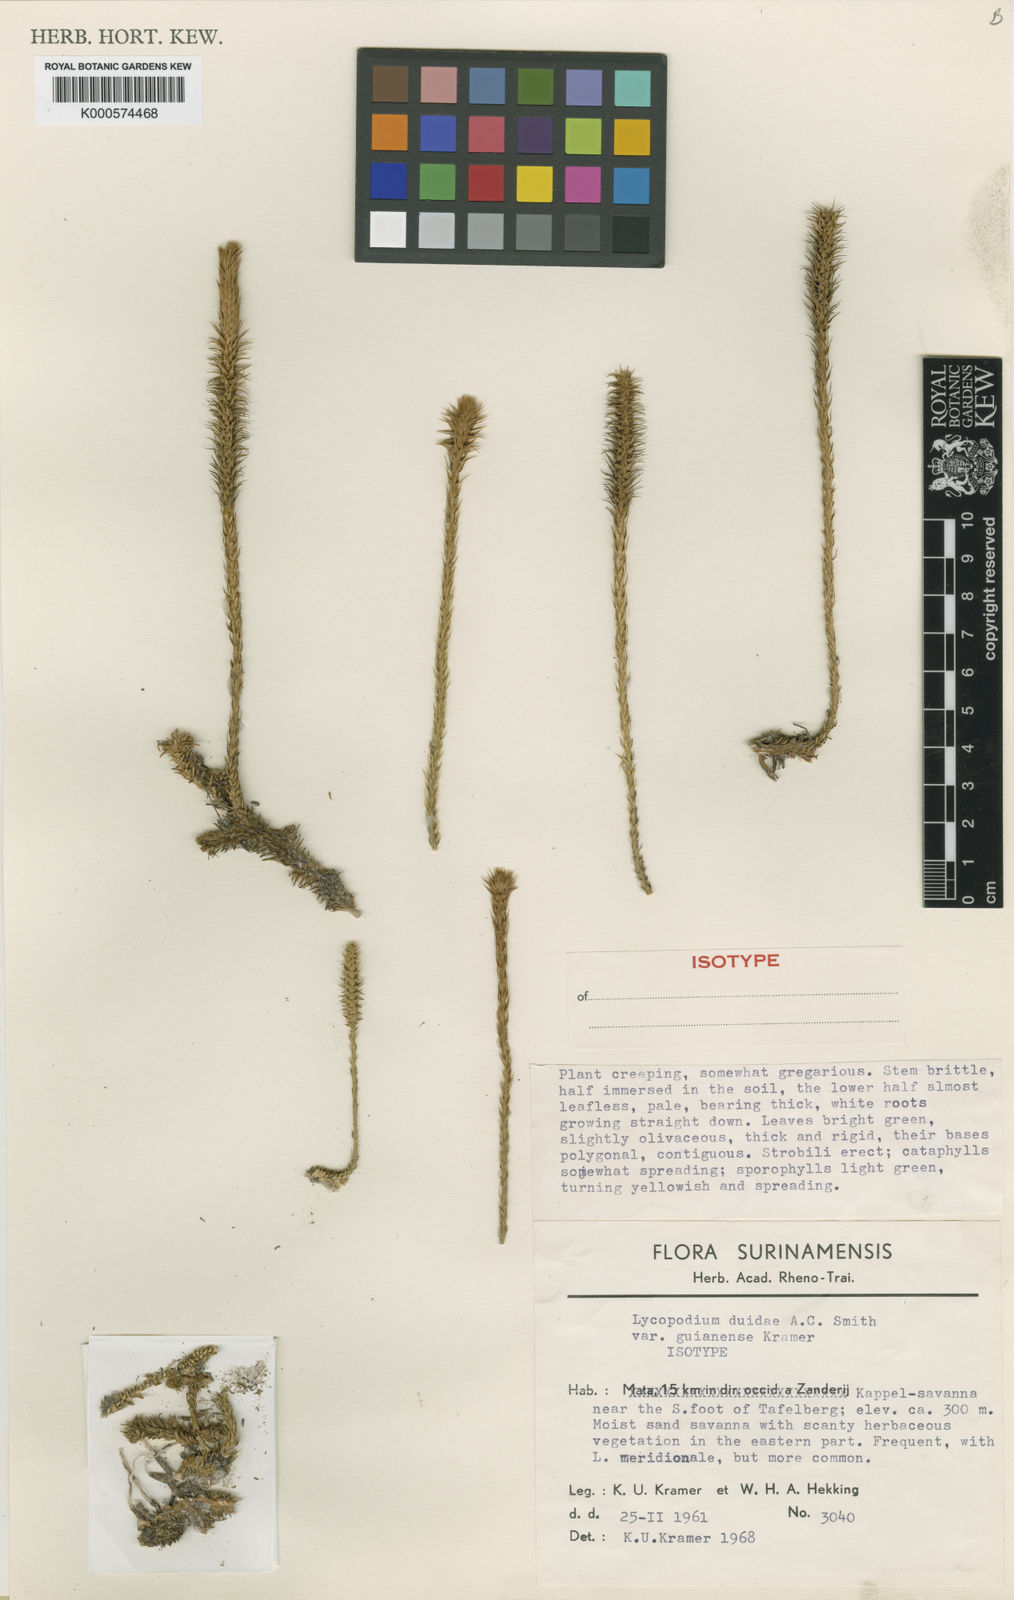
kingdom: Plantae
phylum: Tracheophyta
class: Lycopodiopsida
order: Lycopodiales
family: Lycopodiaceae
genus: Pseudolycopodiella
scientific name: Pseudolycopodiella iuliformis
